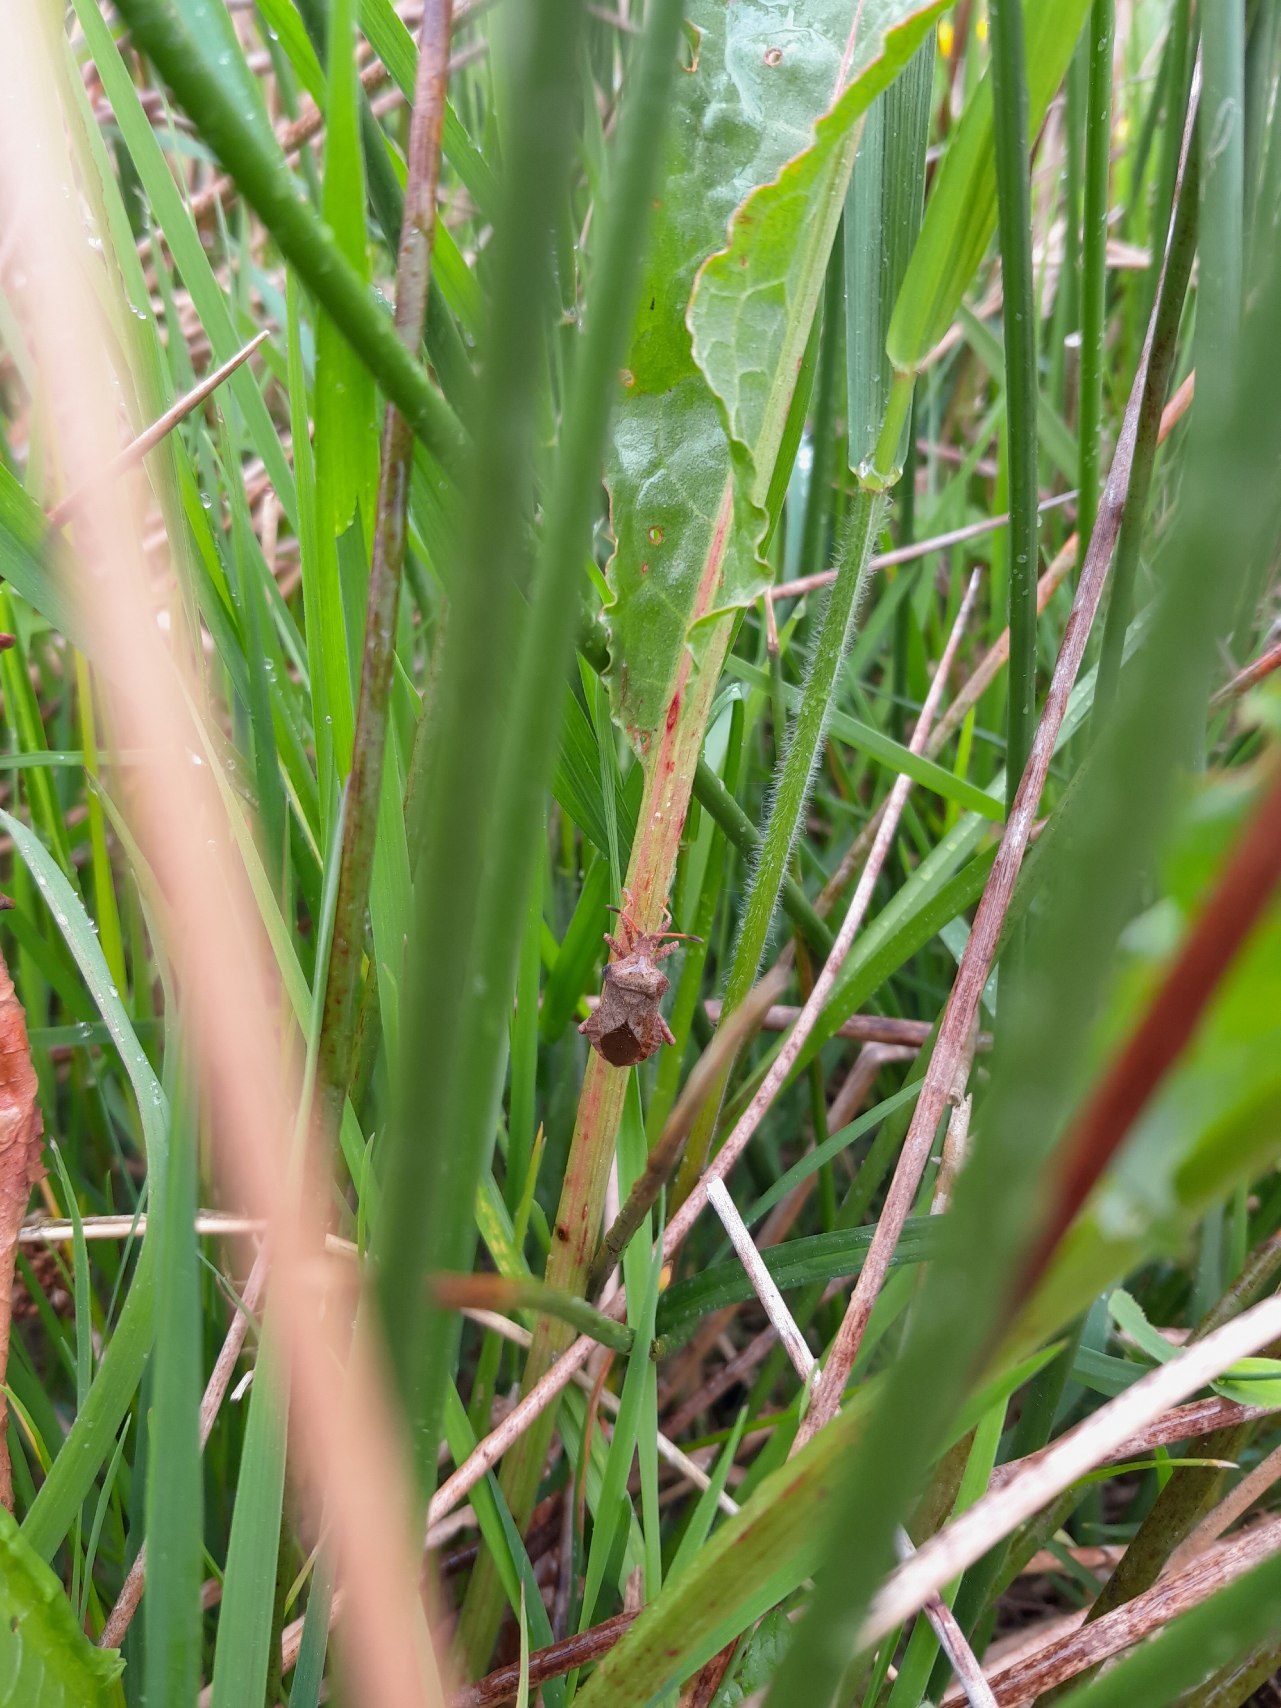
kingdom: Animalia
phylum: Arthropoda
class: Insecta
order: Hemiptera
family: Coreidae
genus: Coreus
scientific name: Coreus marginatus
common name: Skræppetæge
